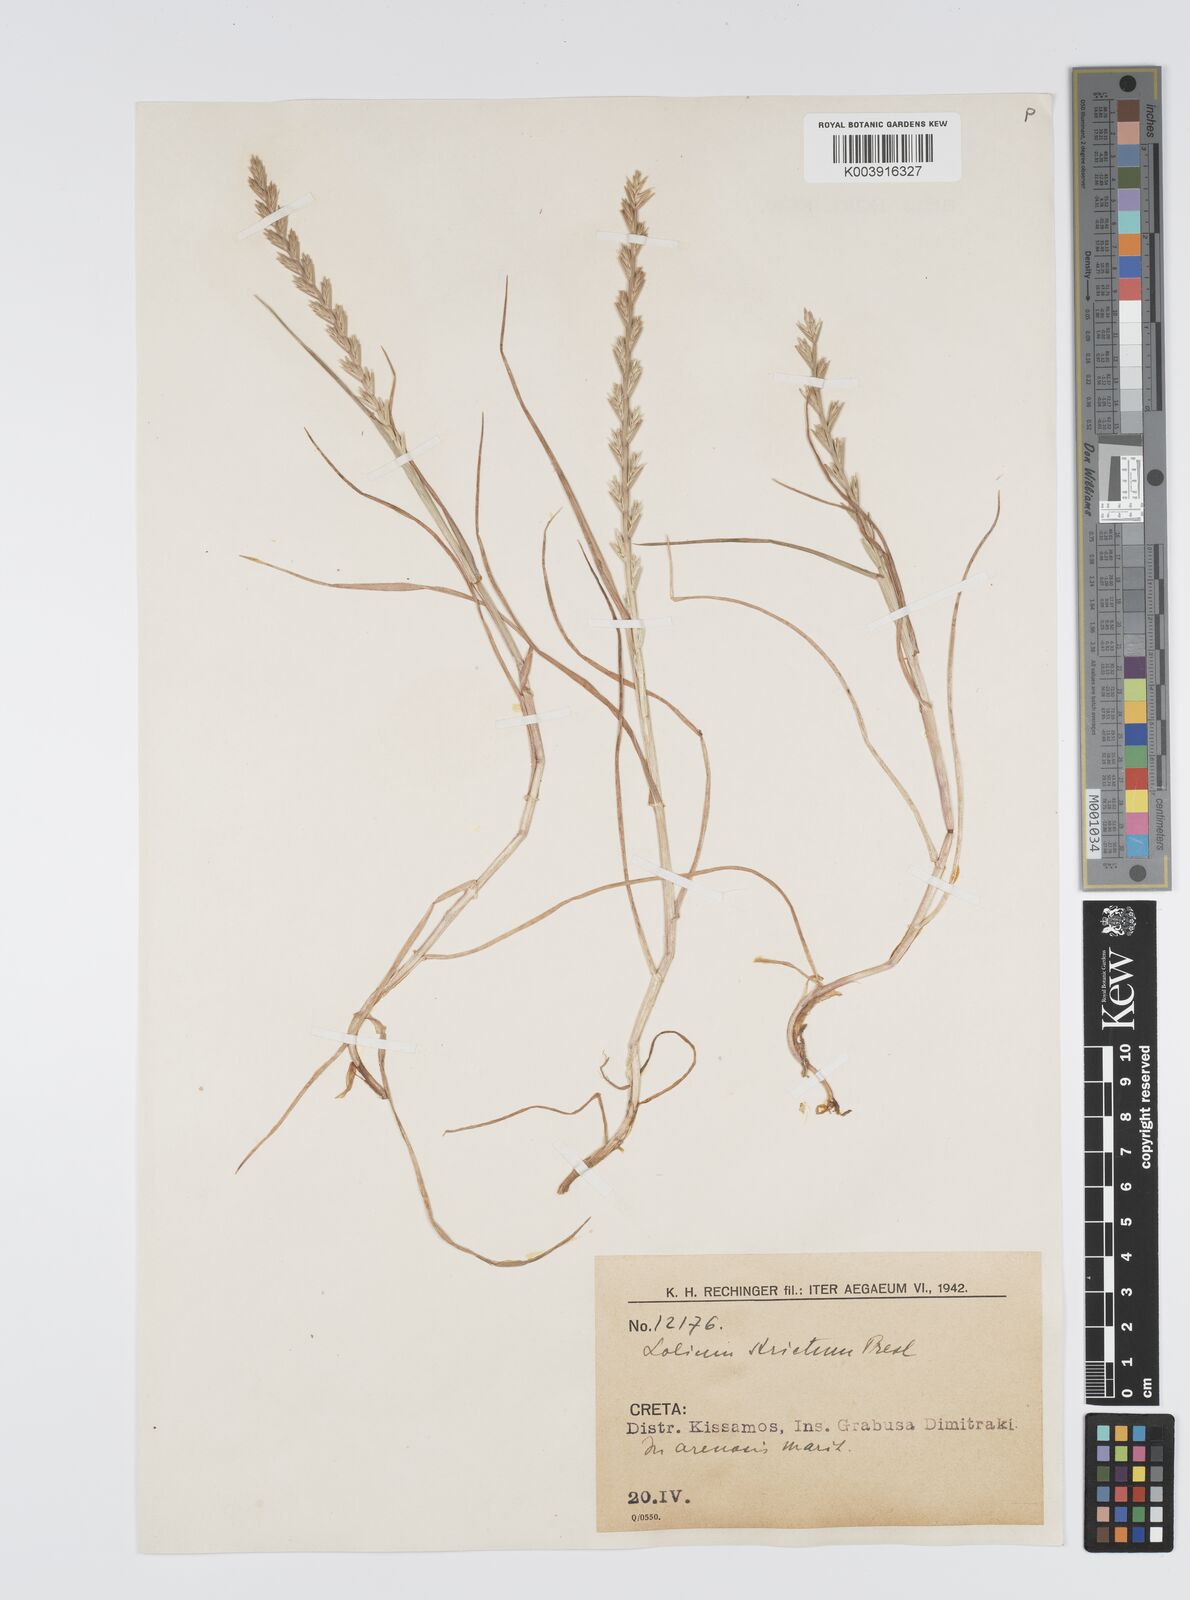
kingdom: Plantae
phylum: Tracheophyta
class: Liliopsida
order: Poales
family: Poaceae
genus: Lolium
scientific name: Lolium rigidum
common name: Wimmera ryegrass
